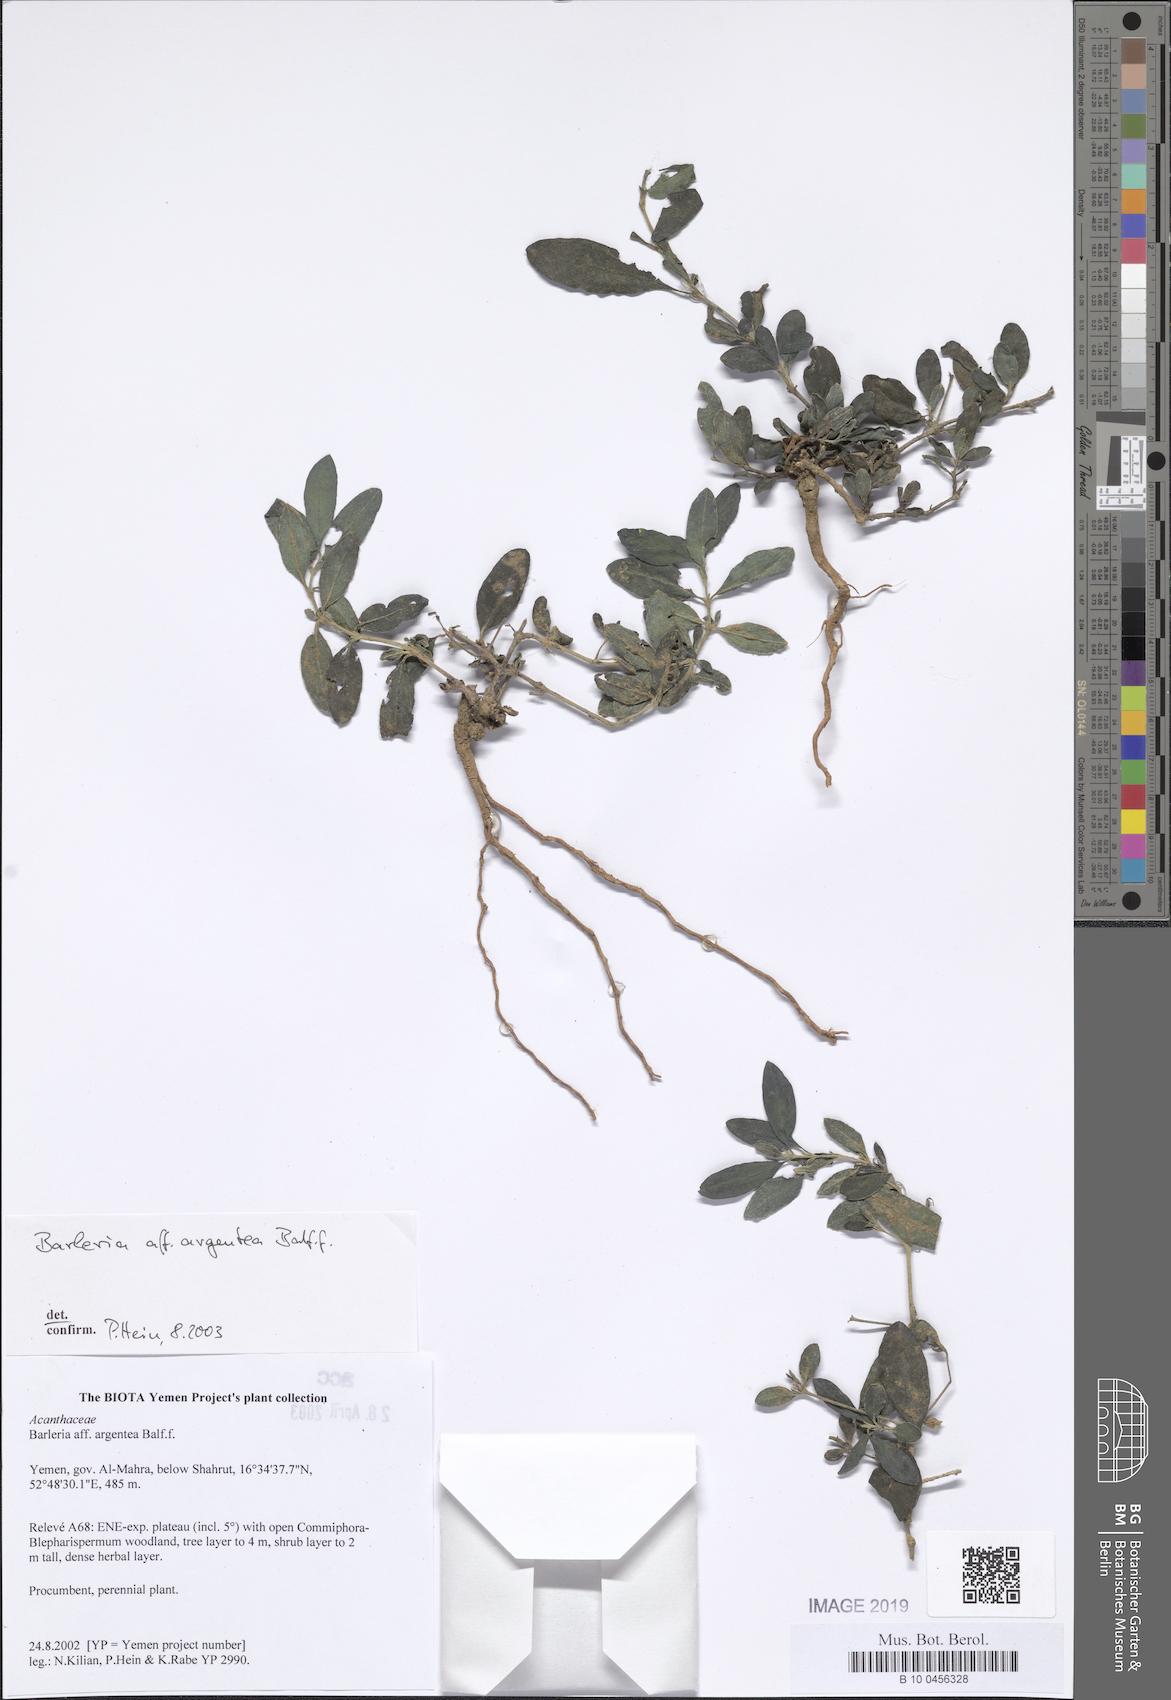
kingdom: Plantae
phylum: Tracheophyta
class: Magnoliopsida
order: Lamiales
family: Acanthaceae
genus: Barleria
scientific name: Barleria argentea
